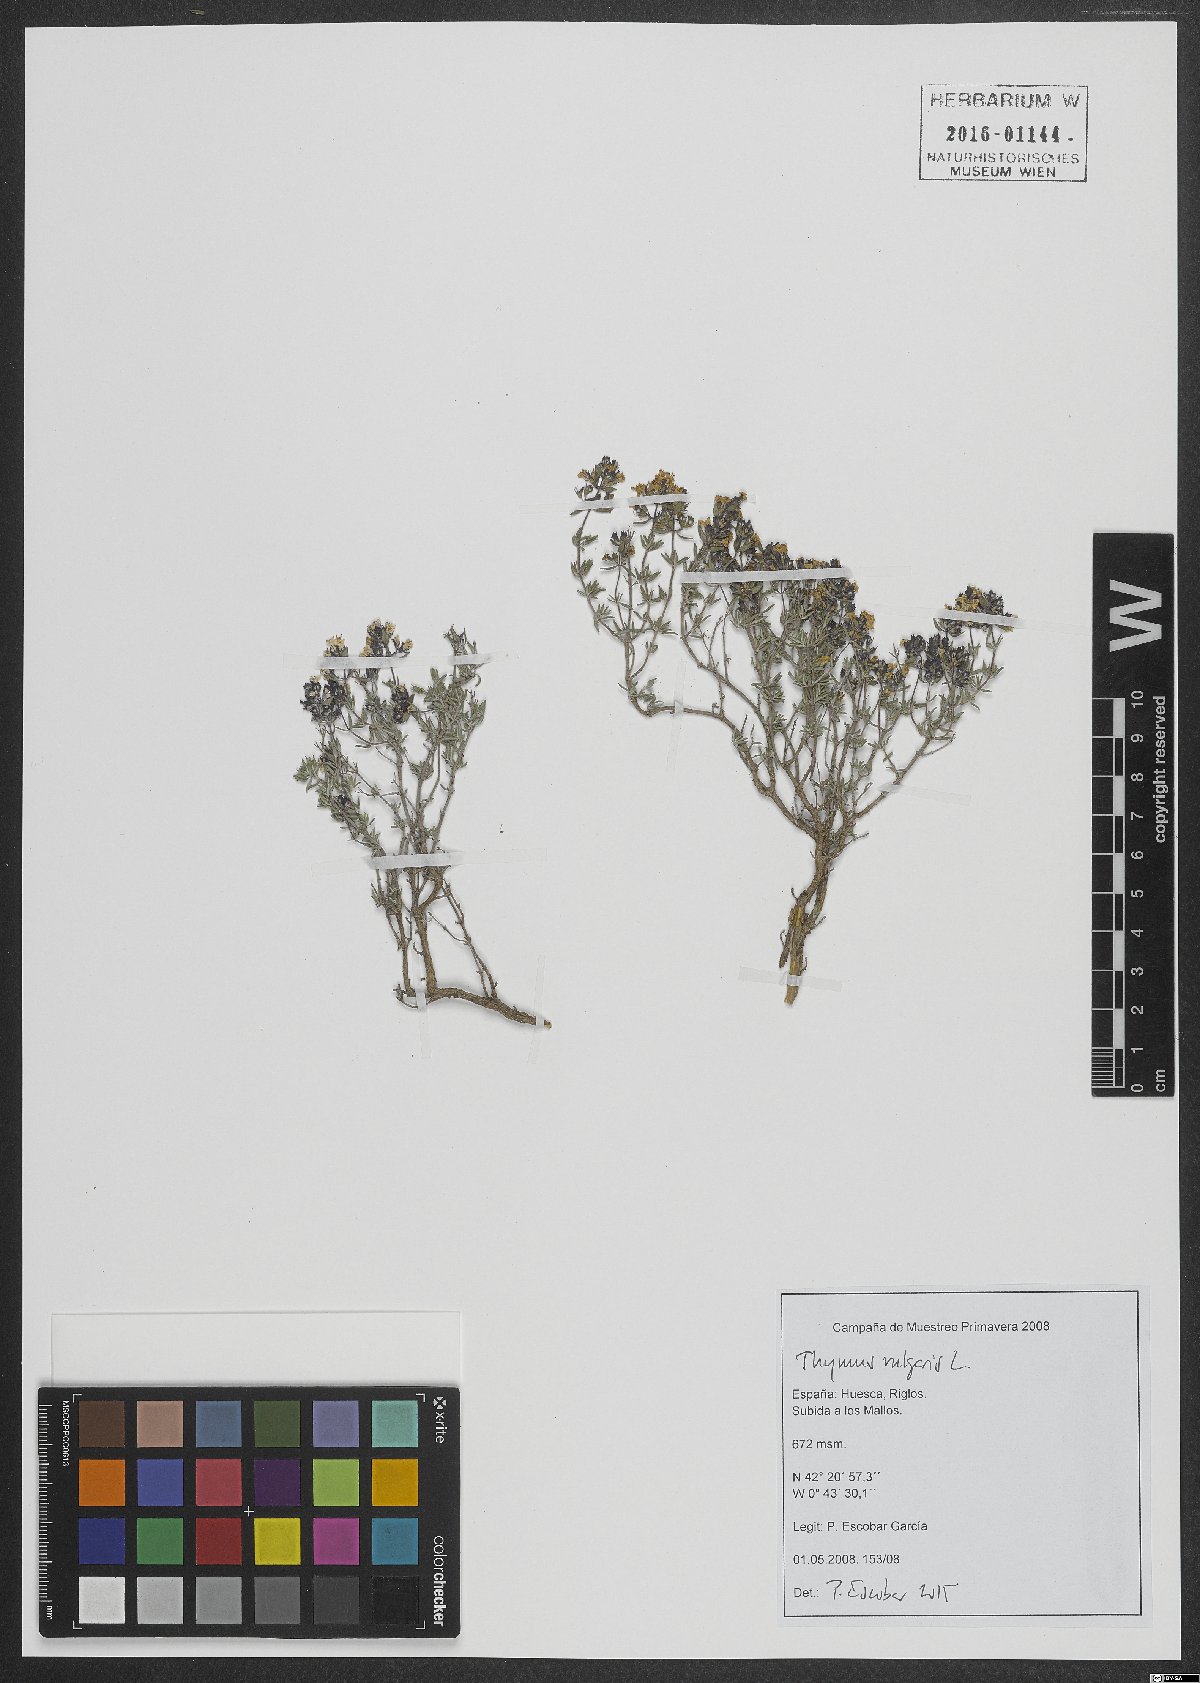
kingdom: Plantae
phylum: Tracheophyta
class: Magnoliopsida
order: Lamiales
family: Lamiaceae
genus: Thymus
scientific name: Thymus vulgaris
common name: Garden thyme
